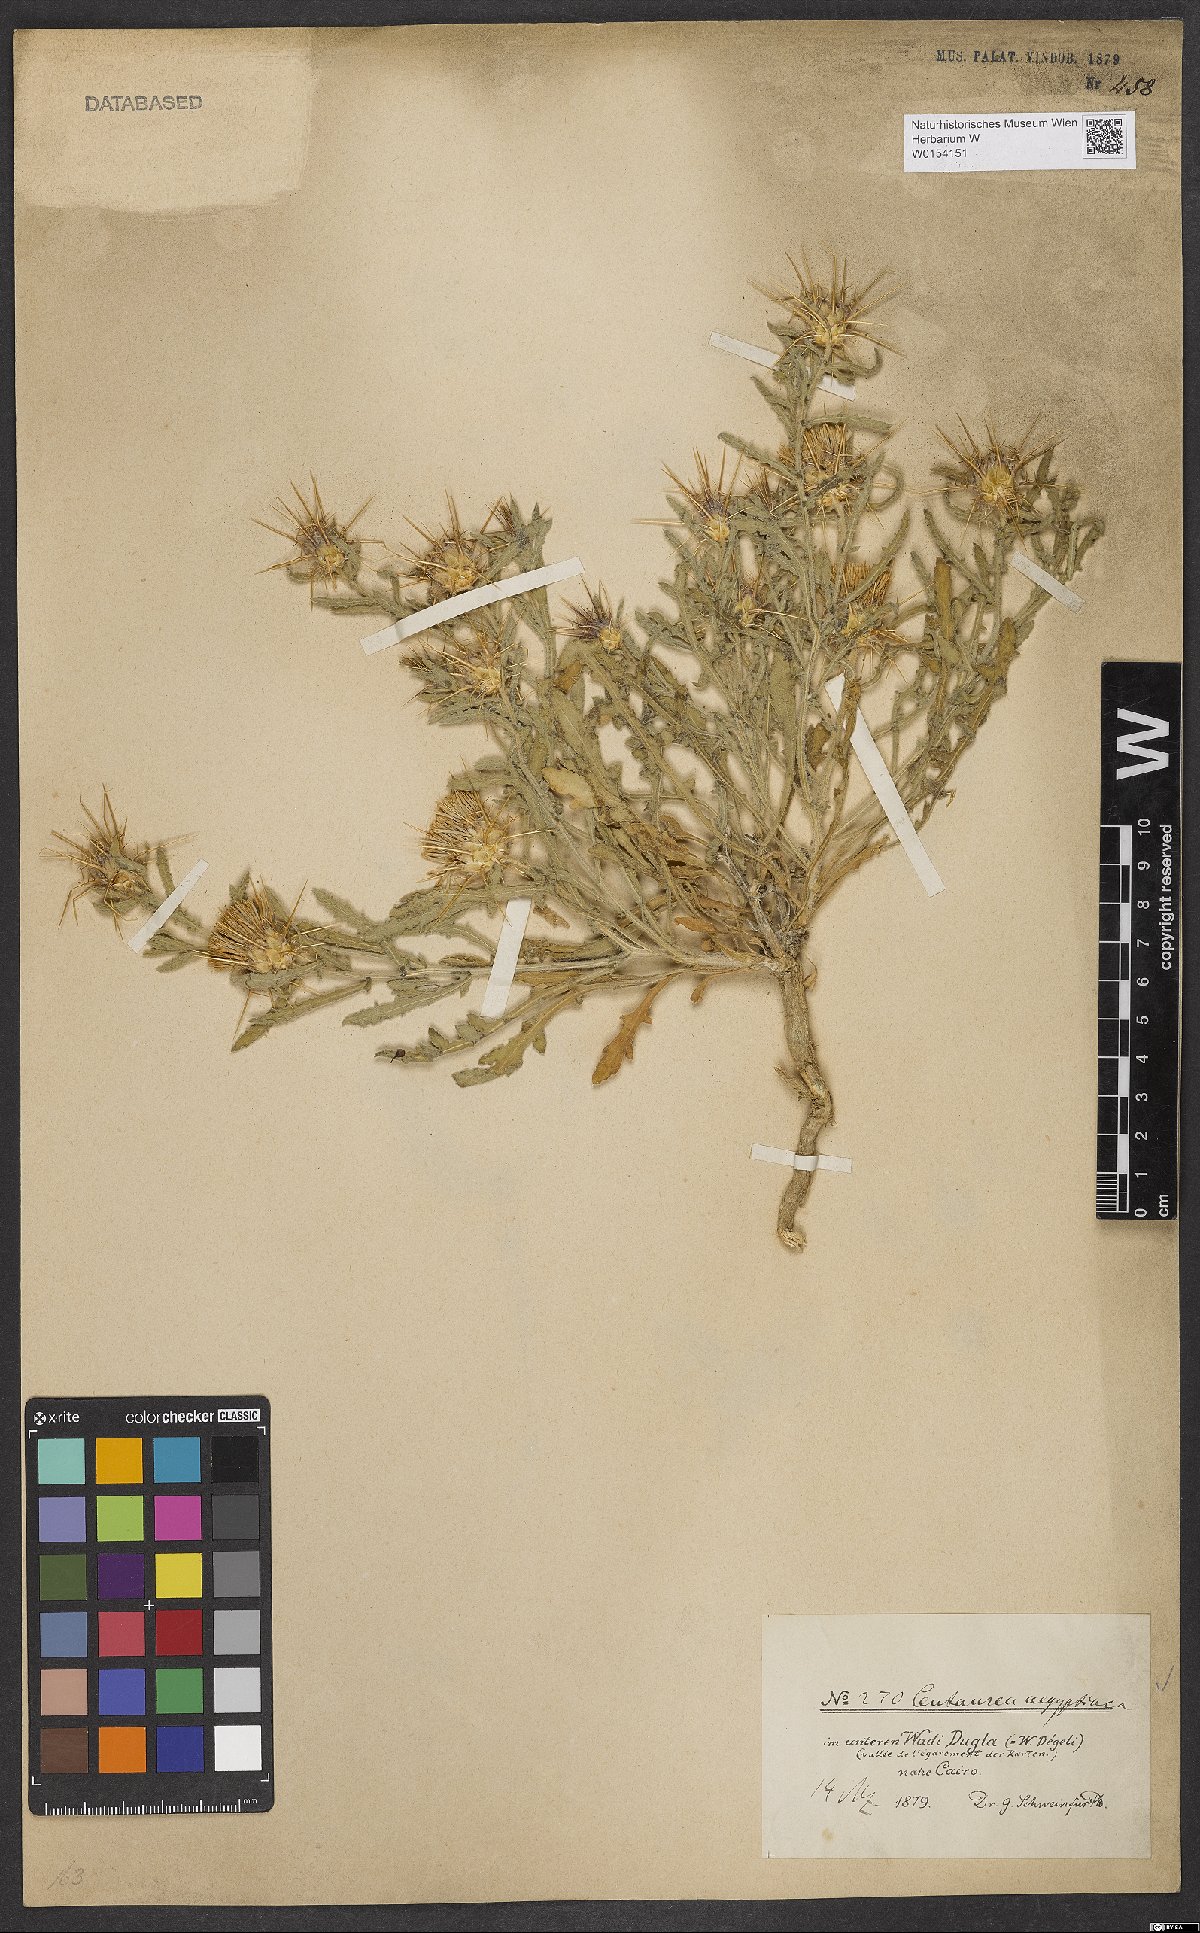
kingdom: Plantae
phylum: Tracheophyta
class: Magnoliopsida
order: Asterales
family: Asteraceae
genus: Centaurea
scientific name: Centaurea aegyptiaca
